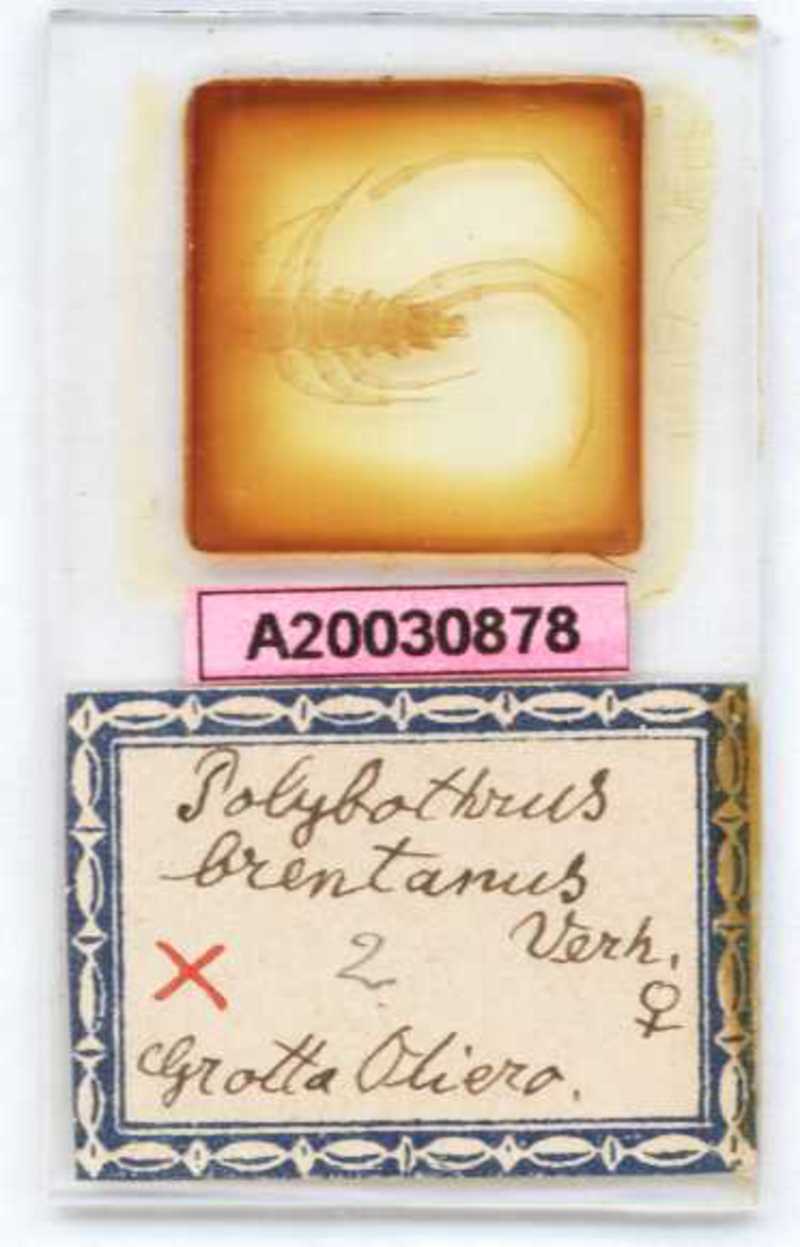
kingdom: Animalia
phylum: Arthropoda
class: Chilopoda
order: Lithobiomorpha
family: Lithobiidae
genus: Eupolybothrus
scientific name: Eupolybothrus tridentinus
